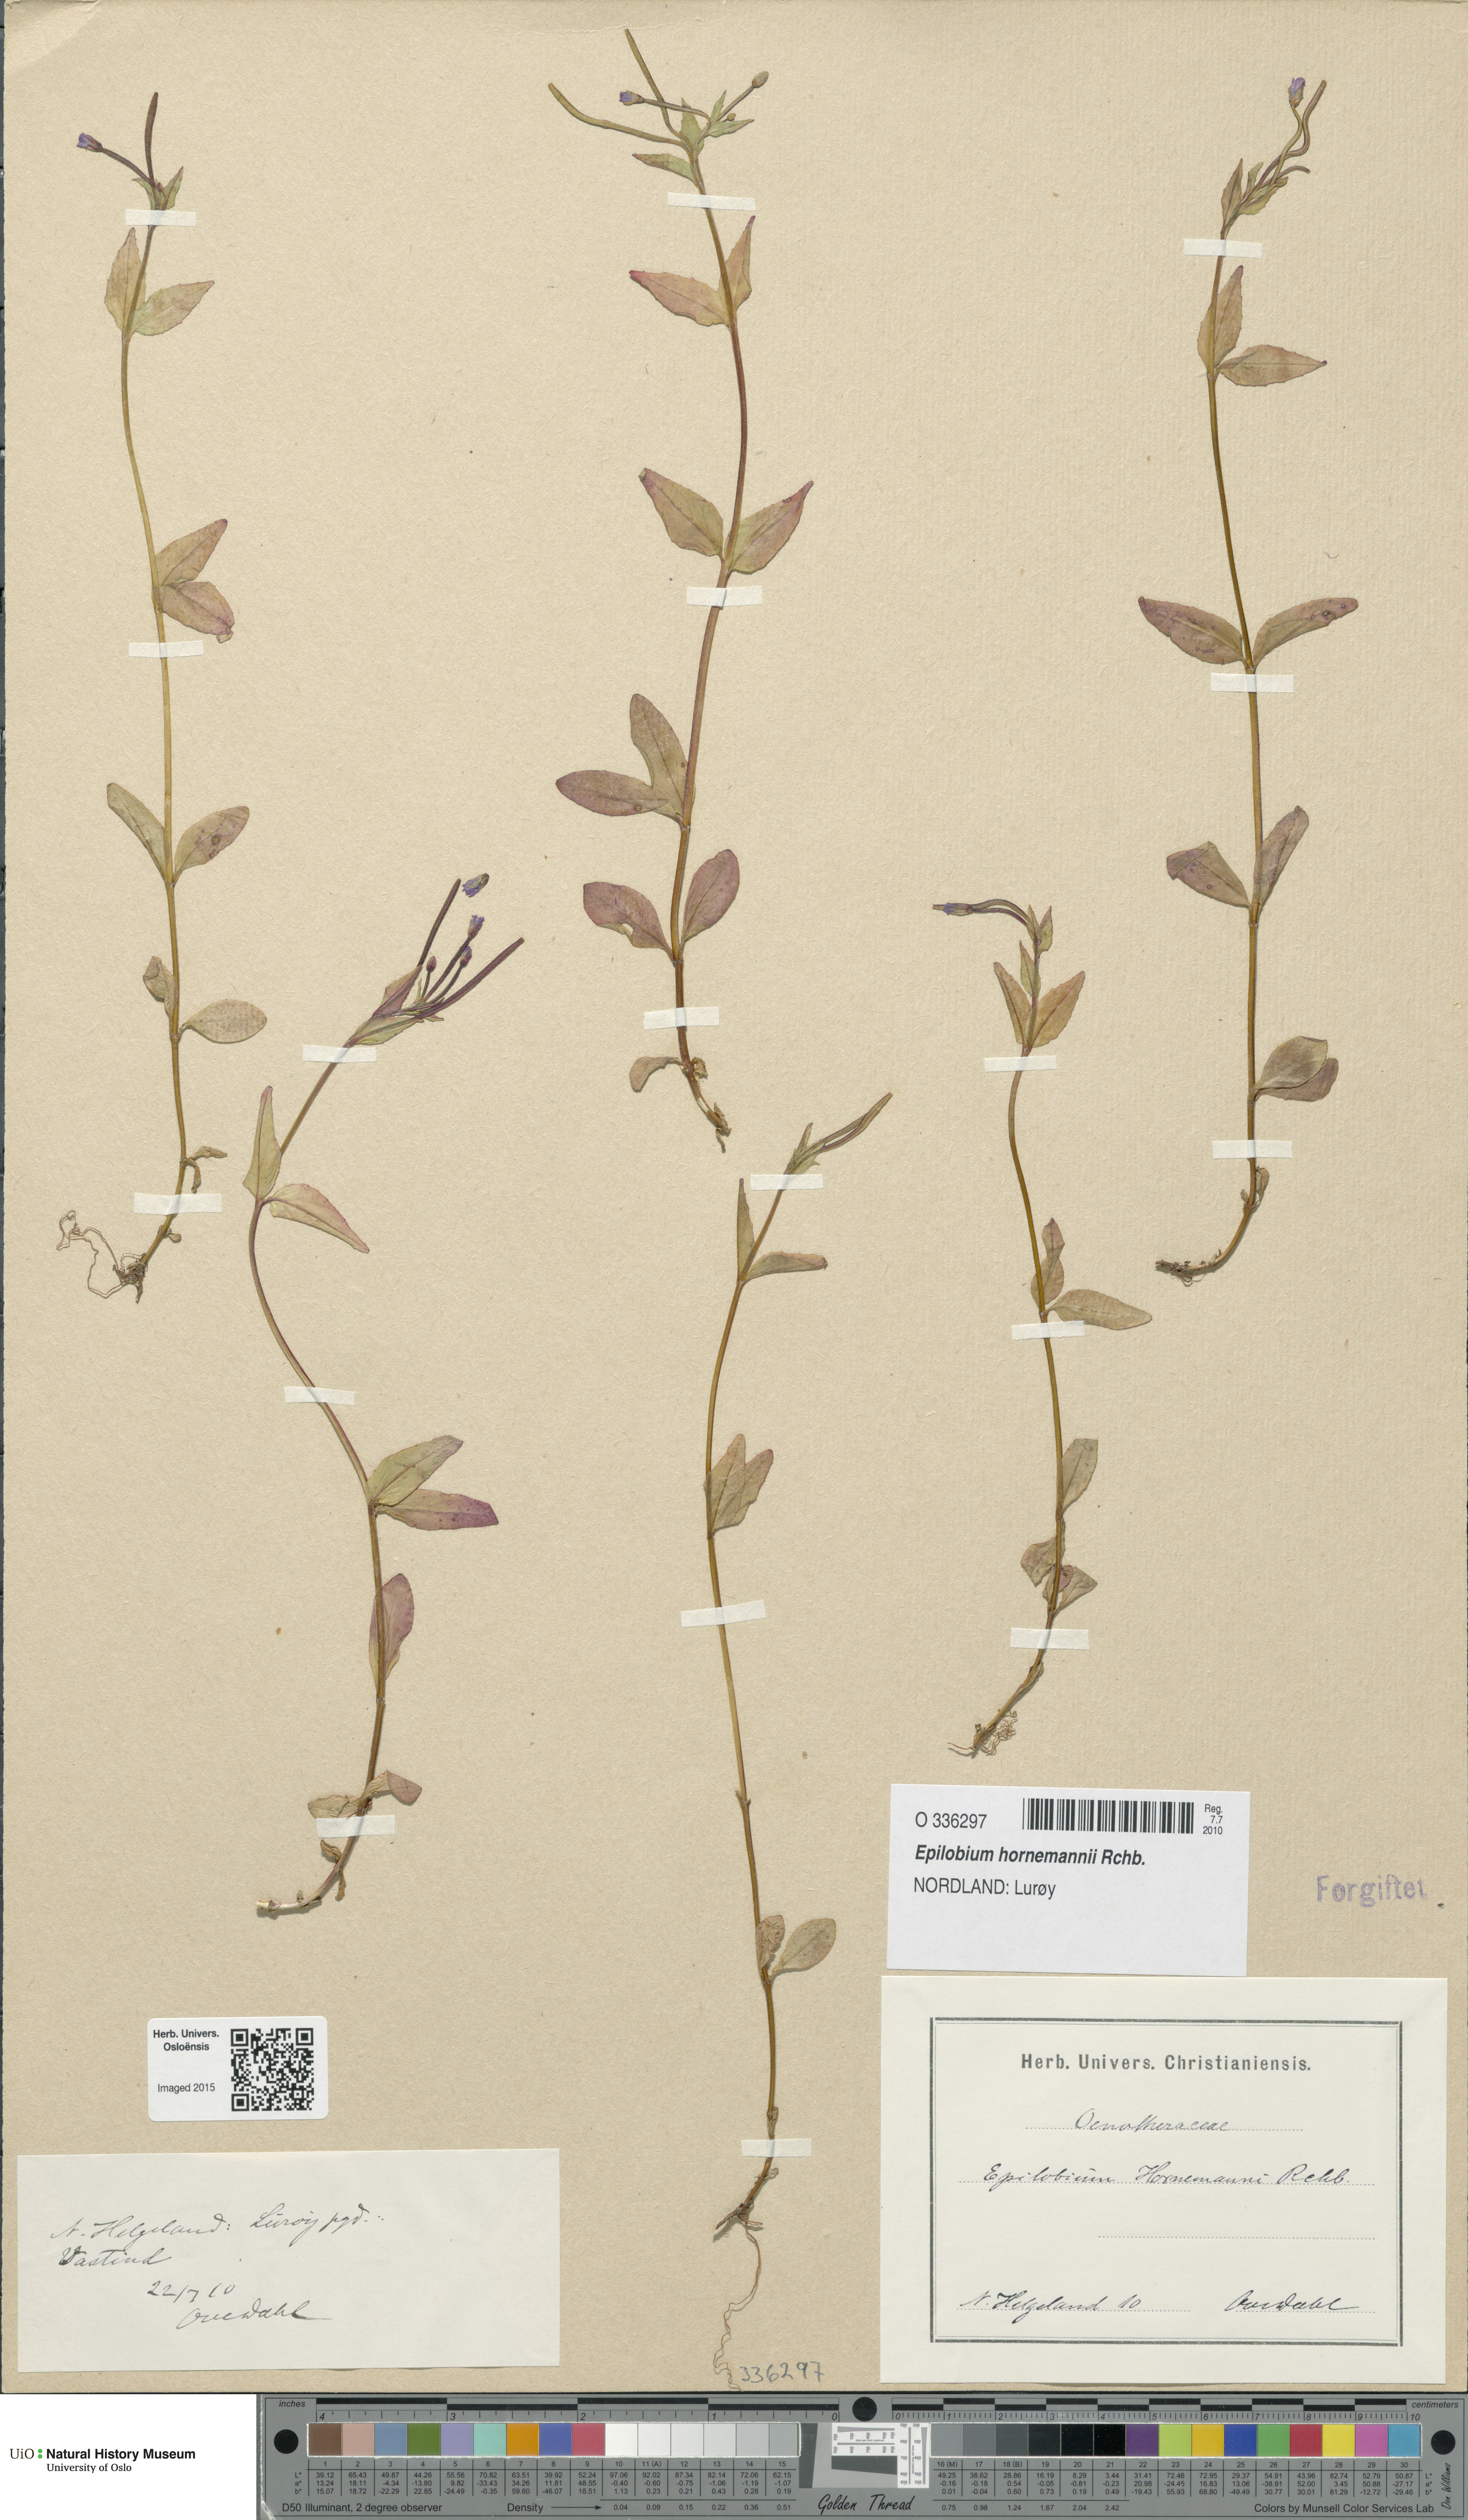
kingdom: Plantae
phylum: Tracheophyta
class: Magnoliopsida
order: Myrtales
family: Onagraceae
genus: Epilobium
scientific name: Epilobium hornemannii
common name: Hornemann's willowherb
